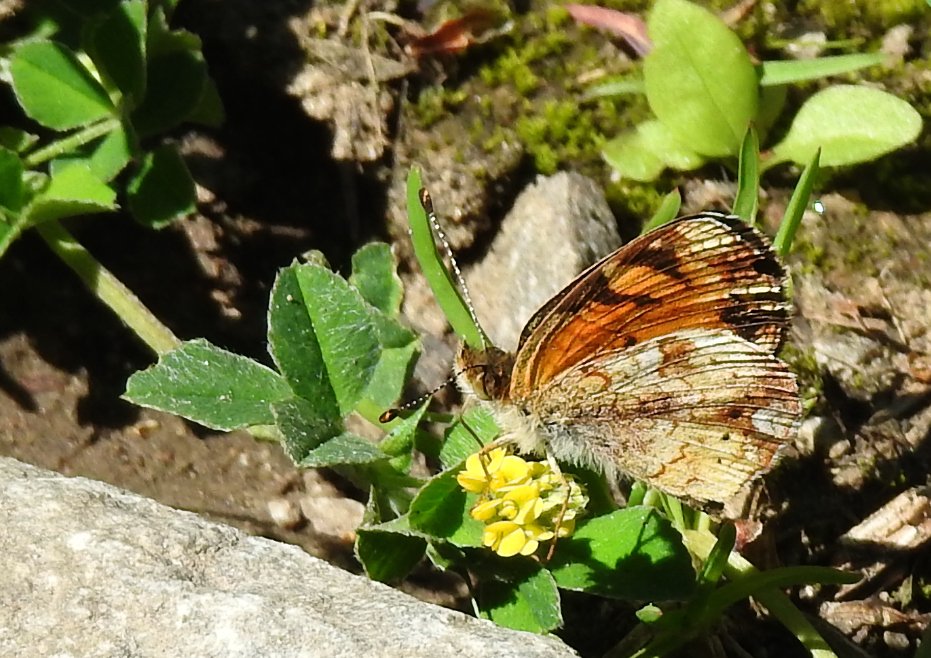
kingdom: Animalia
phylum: Arthropoda
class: Insecta
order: Lepidoptera
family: Nymphalidae
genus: Phyciodes
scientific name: Phyciodes tharos
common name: Pearl Crescent
